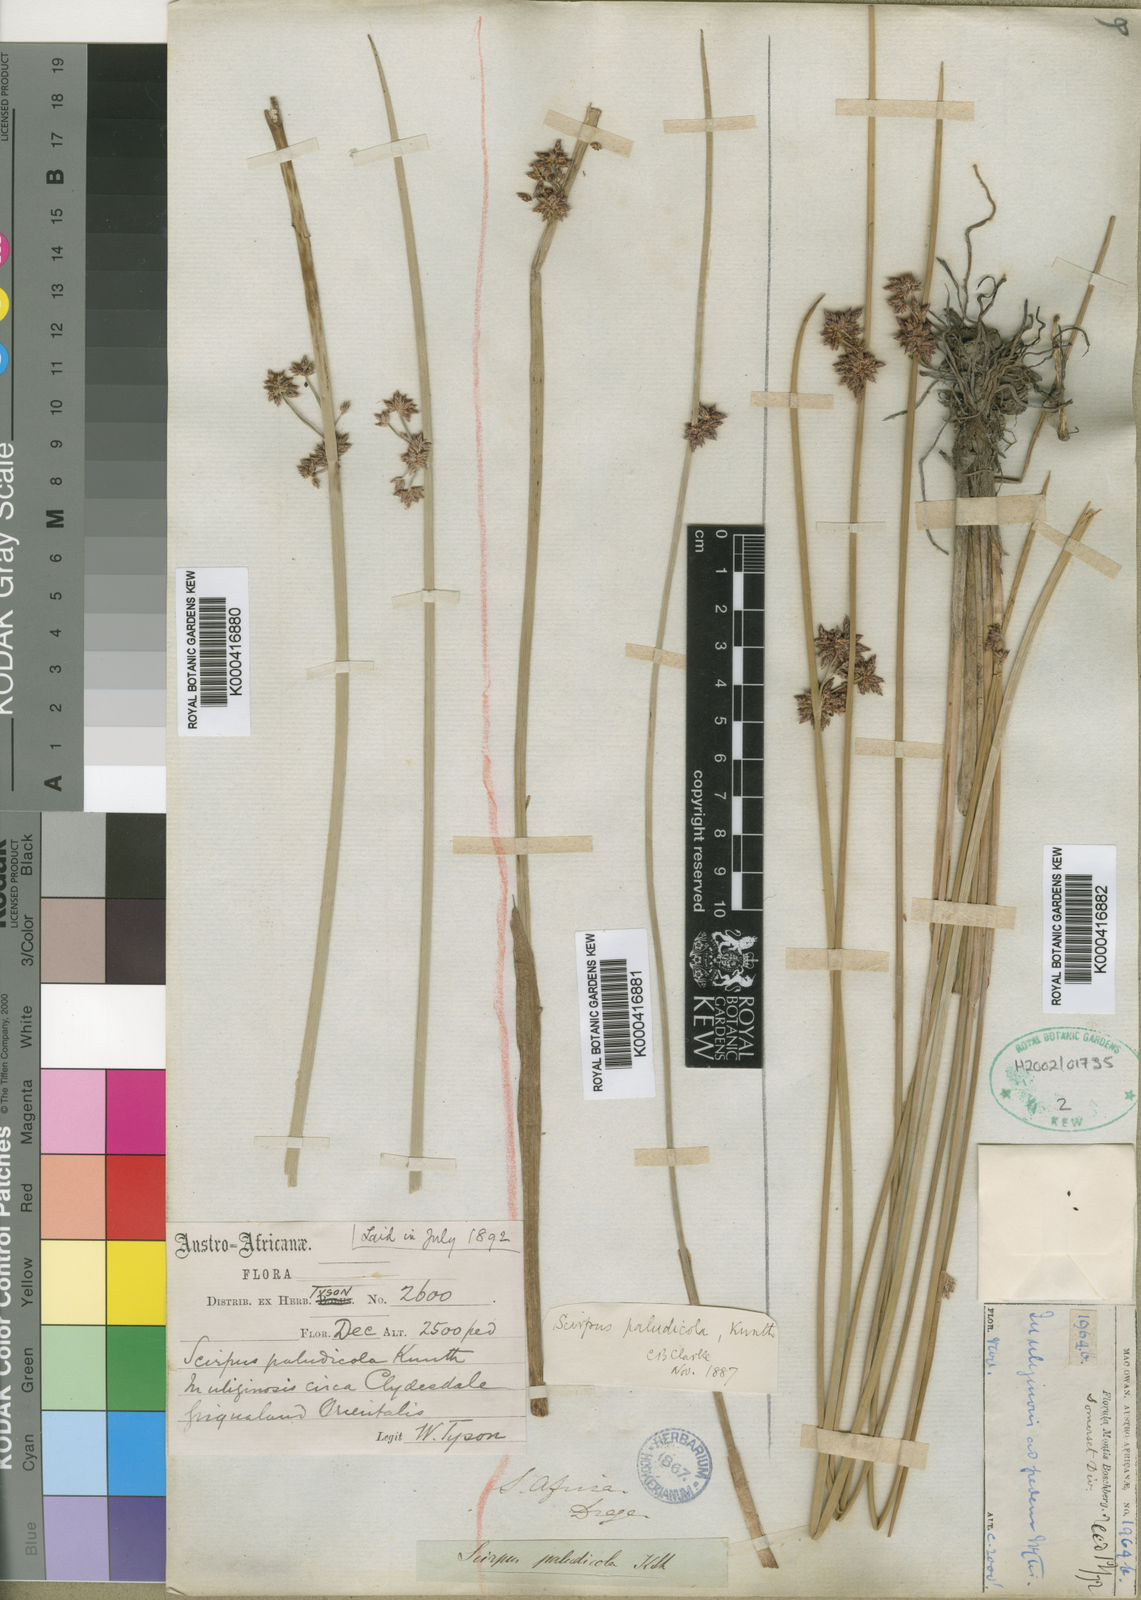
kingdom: Plantae
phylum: Tracheophyta
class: Liliopsida
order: Poales
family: Cyperaceae
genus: Schoenoplectus
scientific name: Schoenoplectus
